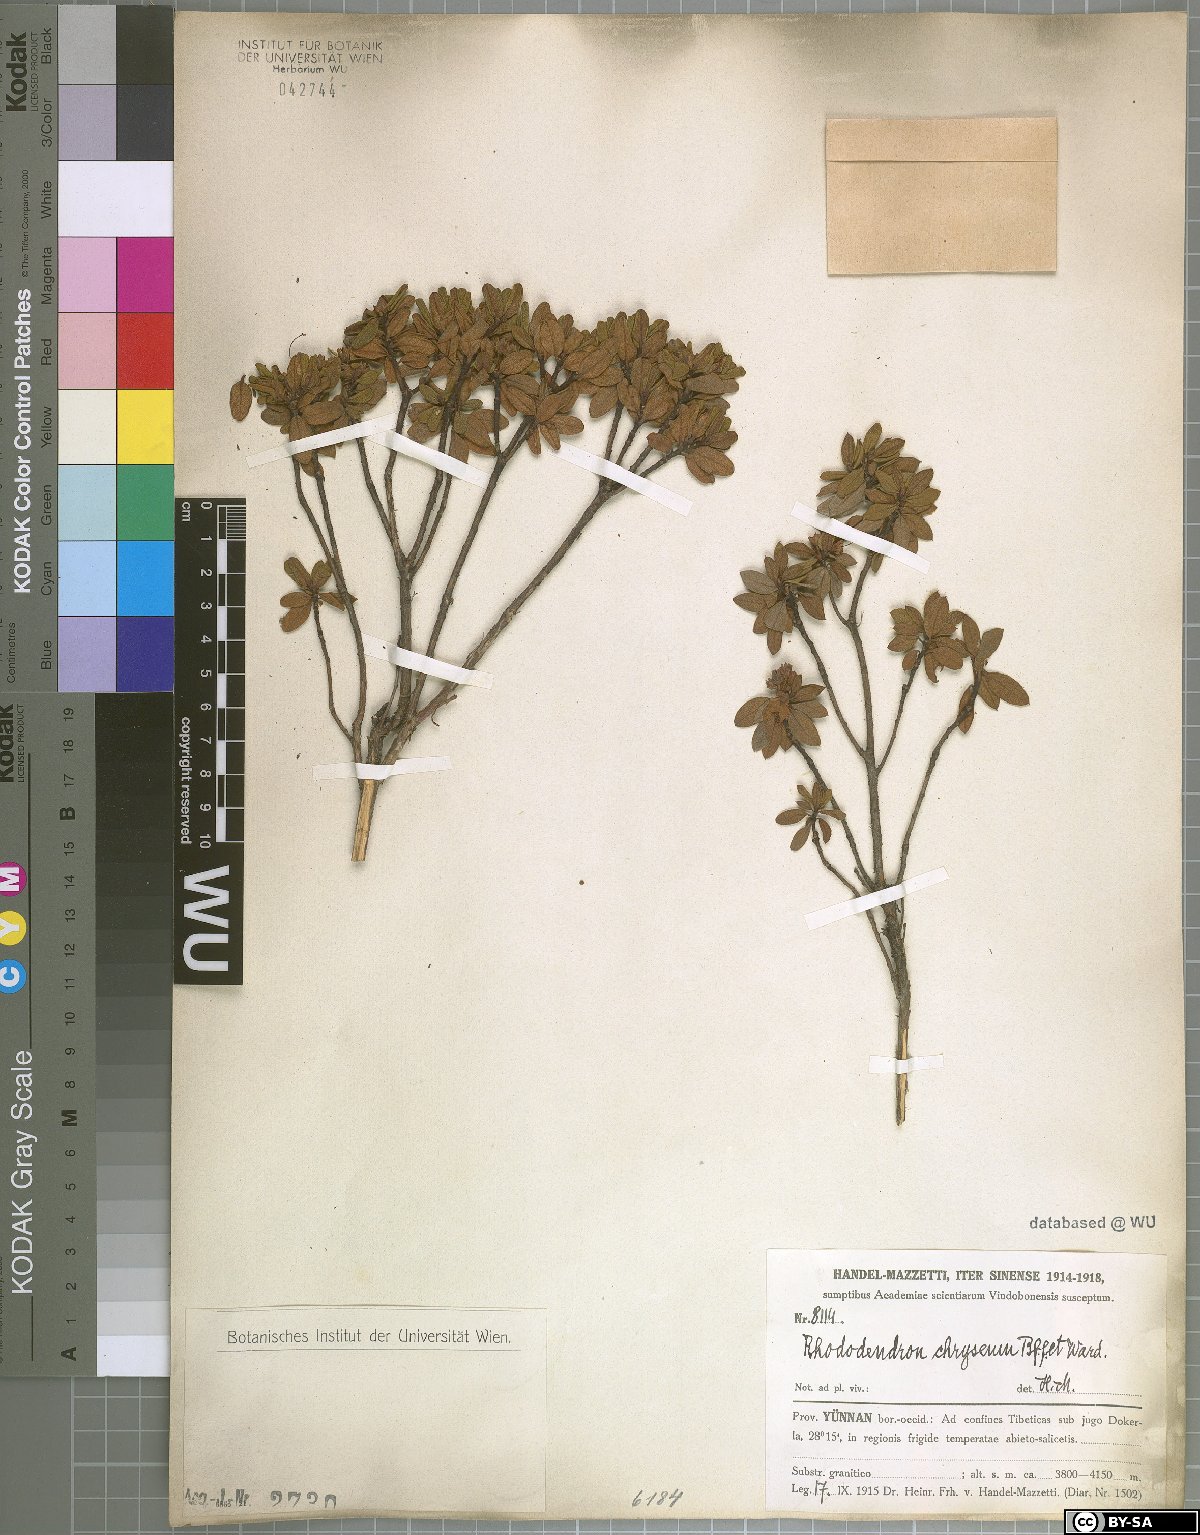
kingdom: Plantae
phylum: Tracheophyta
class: Magnoliopsida
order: Ericales
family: Ericaceae
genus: Rhododendron
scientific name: Rhododendron rupicola
